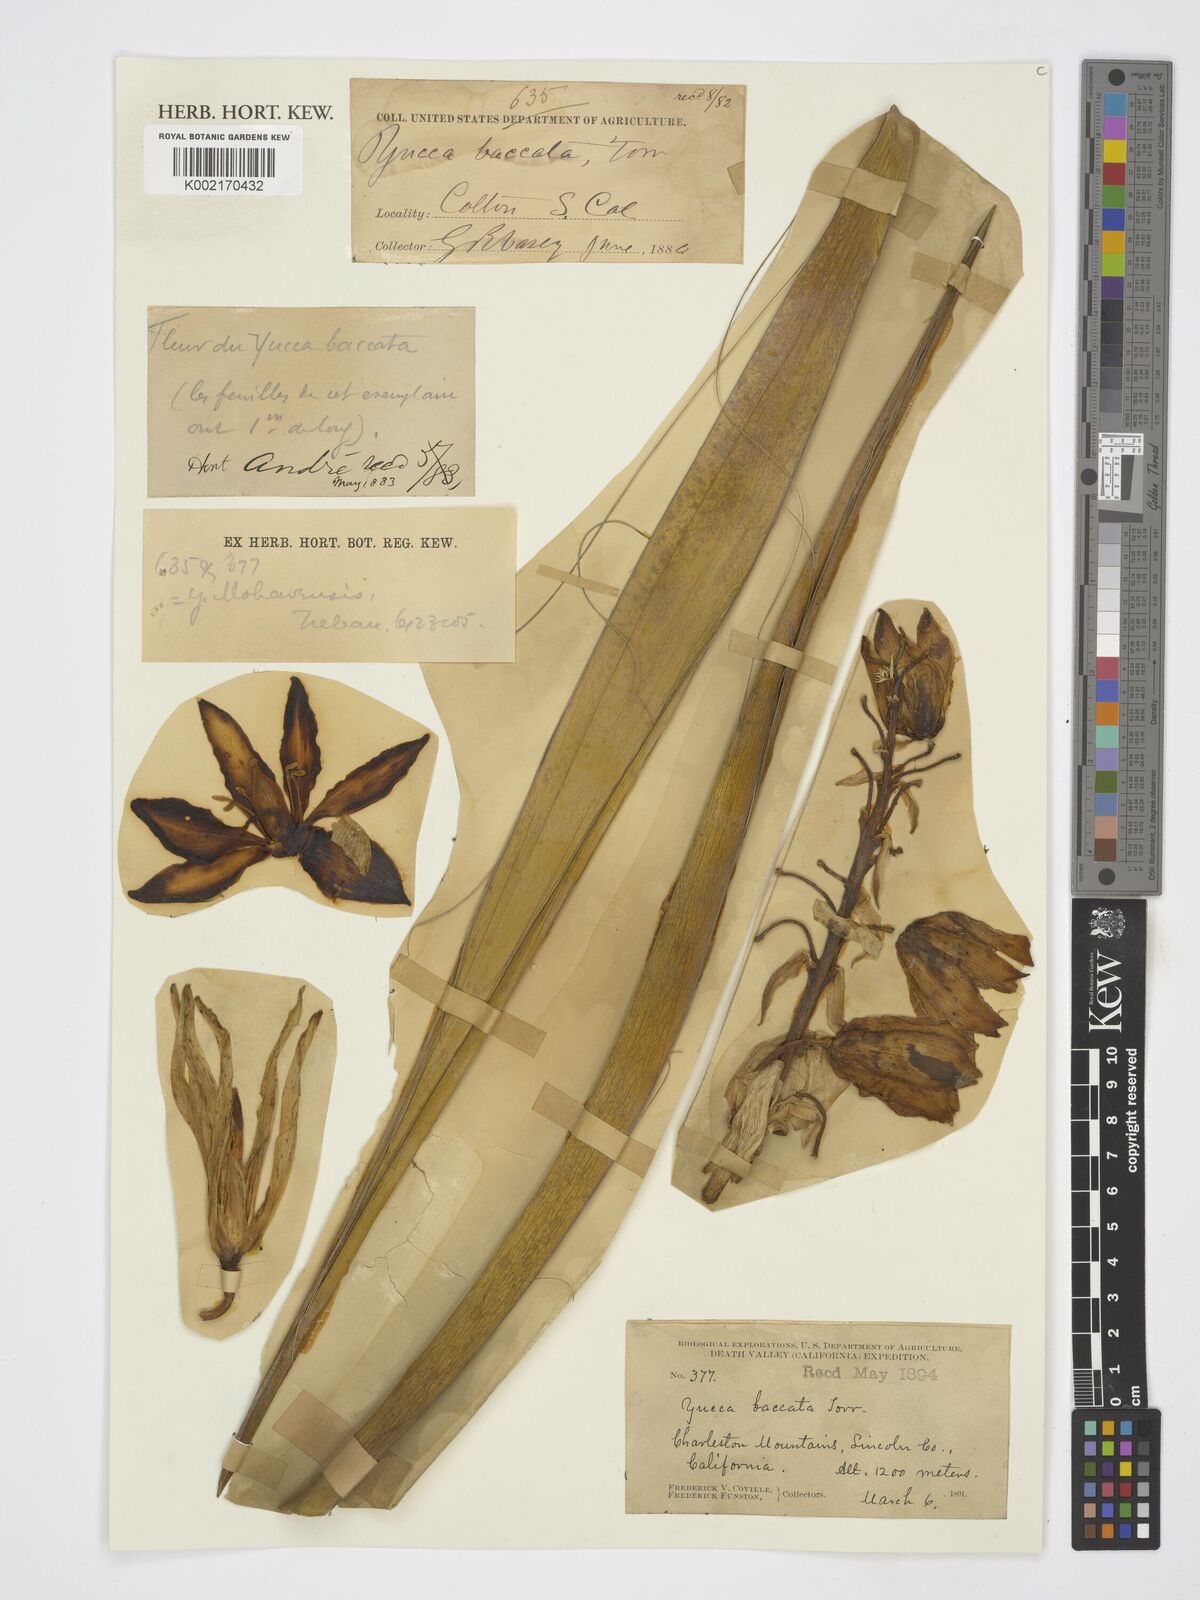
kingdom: Plantae
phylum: Tracheophyta
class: Liliopsida
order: Asparagales
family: Asparagaceae
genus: Yucca
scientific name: Yucca baccata
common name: Banana yucca
